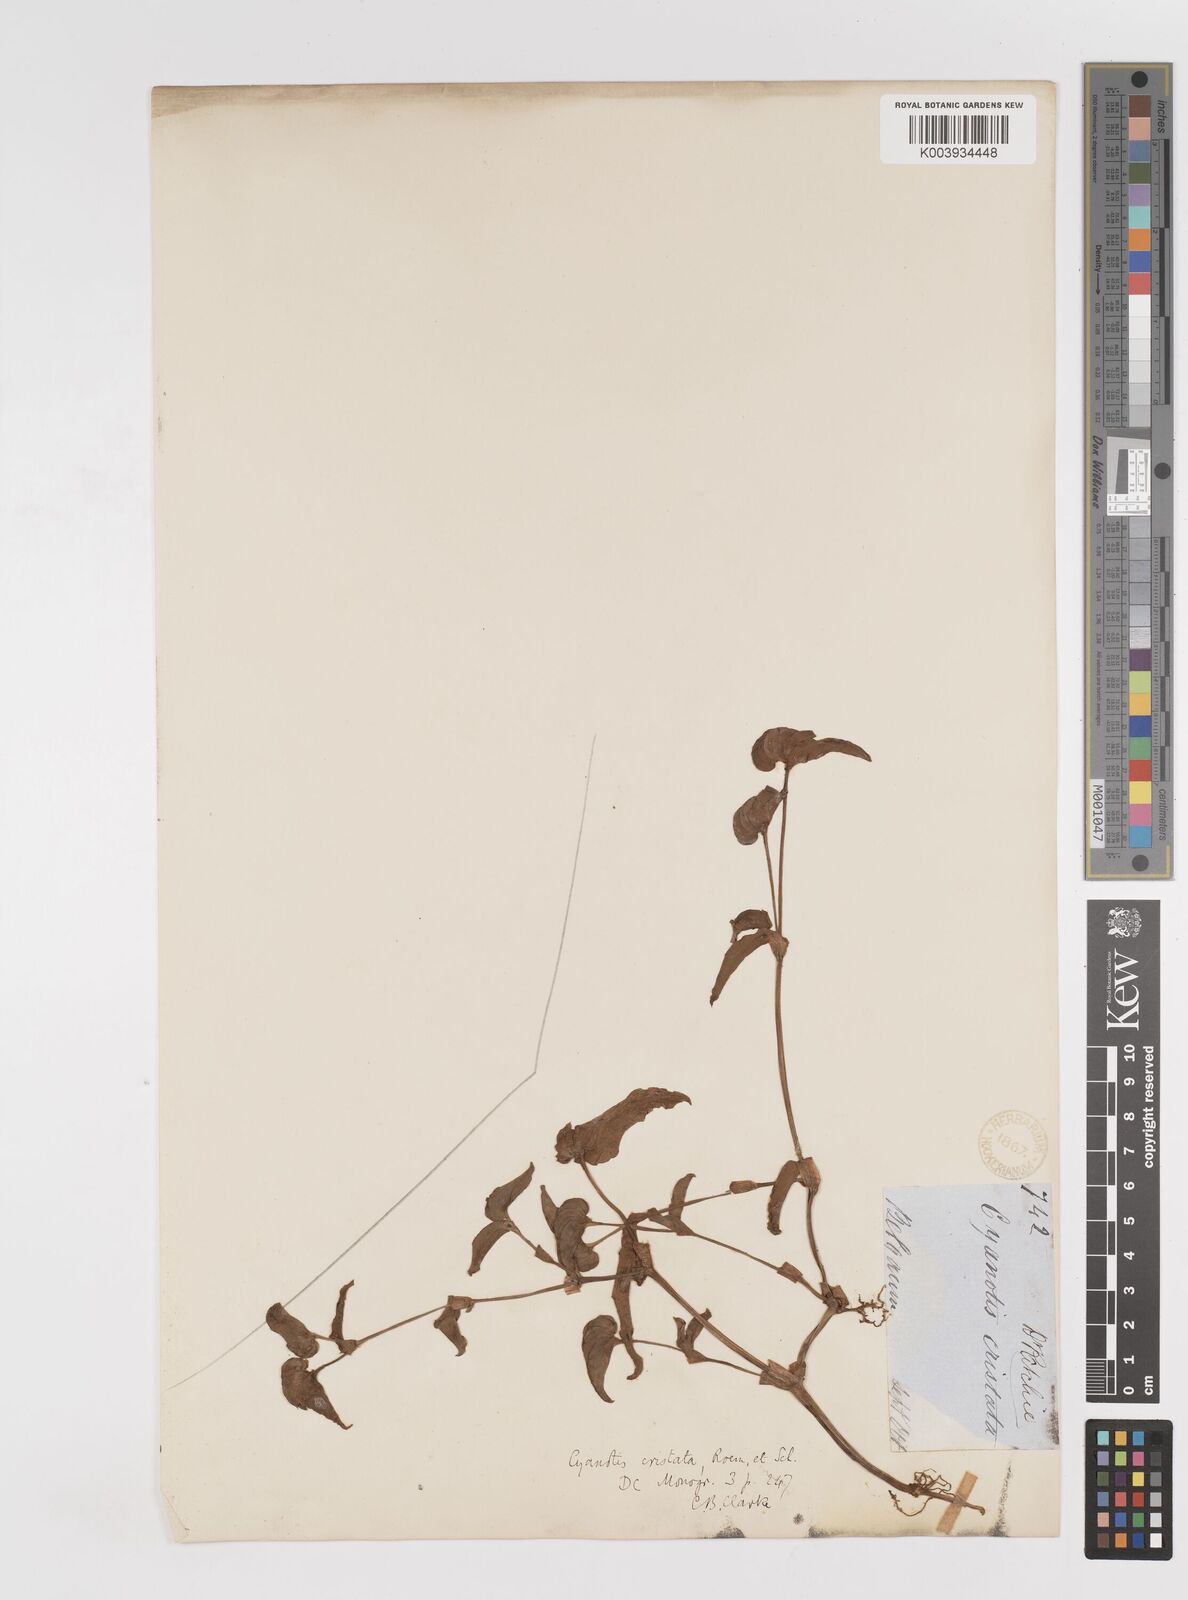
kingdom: Plantae
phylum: Tracheophyta
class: Liliopsida
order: Commelinales
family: Commelinaceae
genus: Cyanotis
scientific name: Cyanotis cristata
